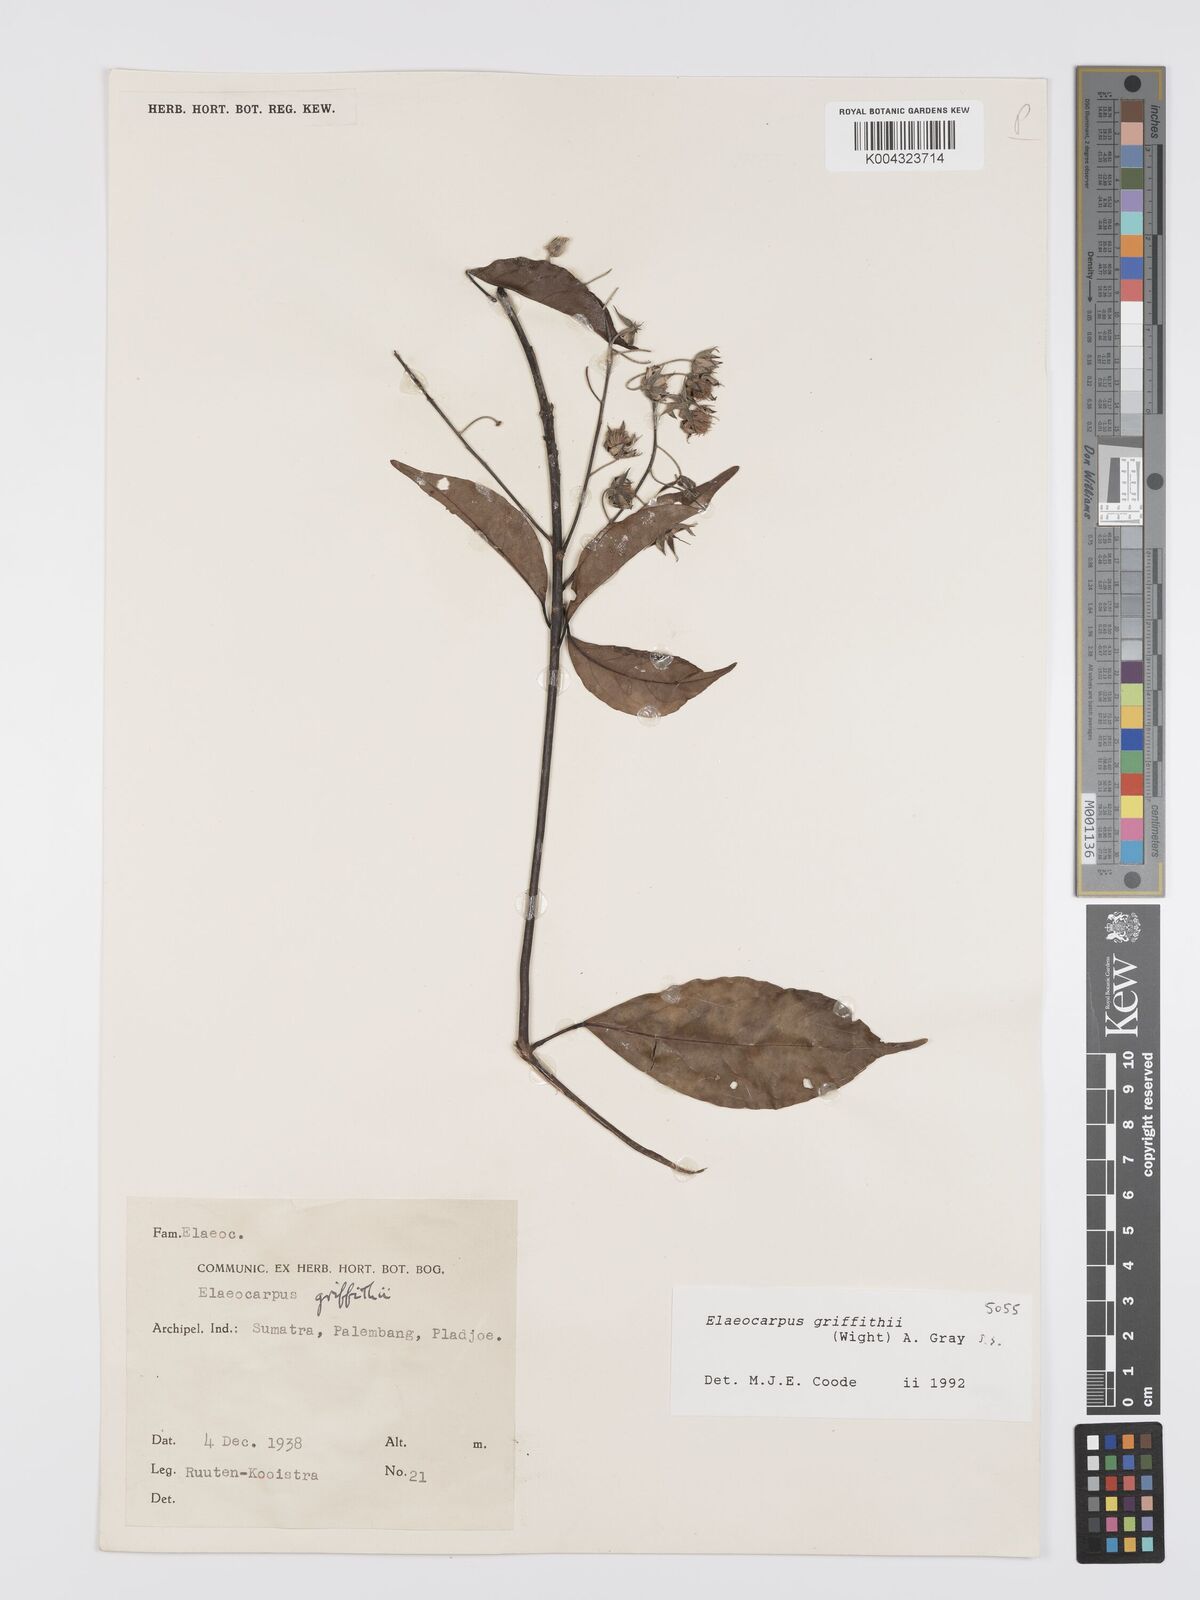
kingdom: Plantae
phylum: Tracheophyta
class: Magnoliopsida
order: Oxalidales
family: Elaeocarpaceae
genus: Elaeocarpus
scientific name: Elaeocarpus griffithii
